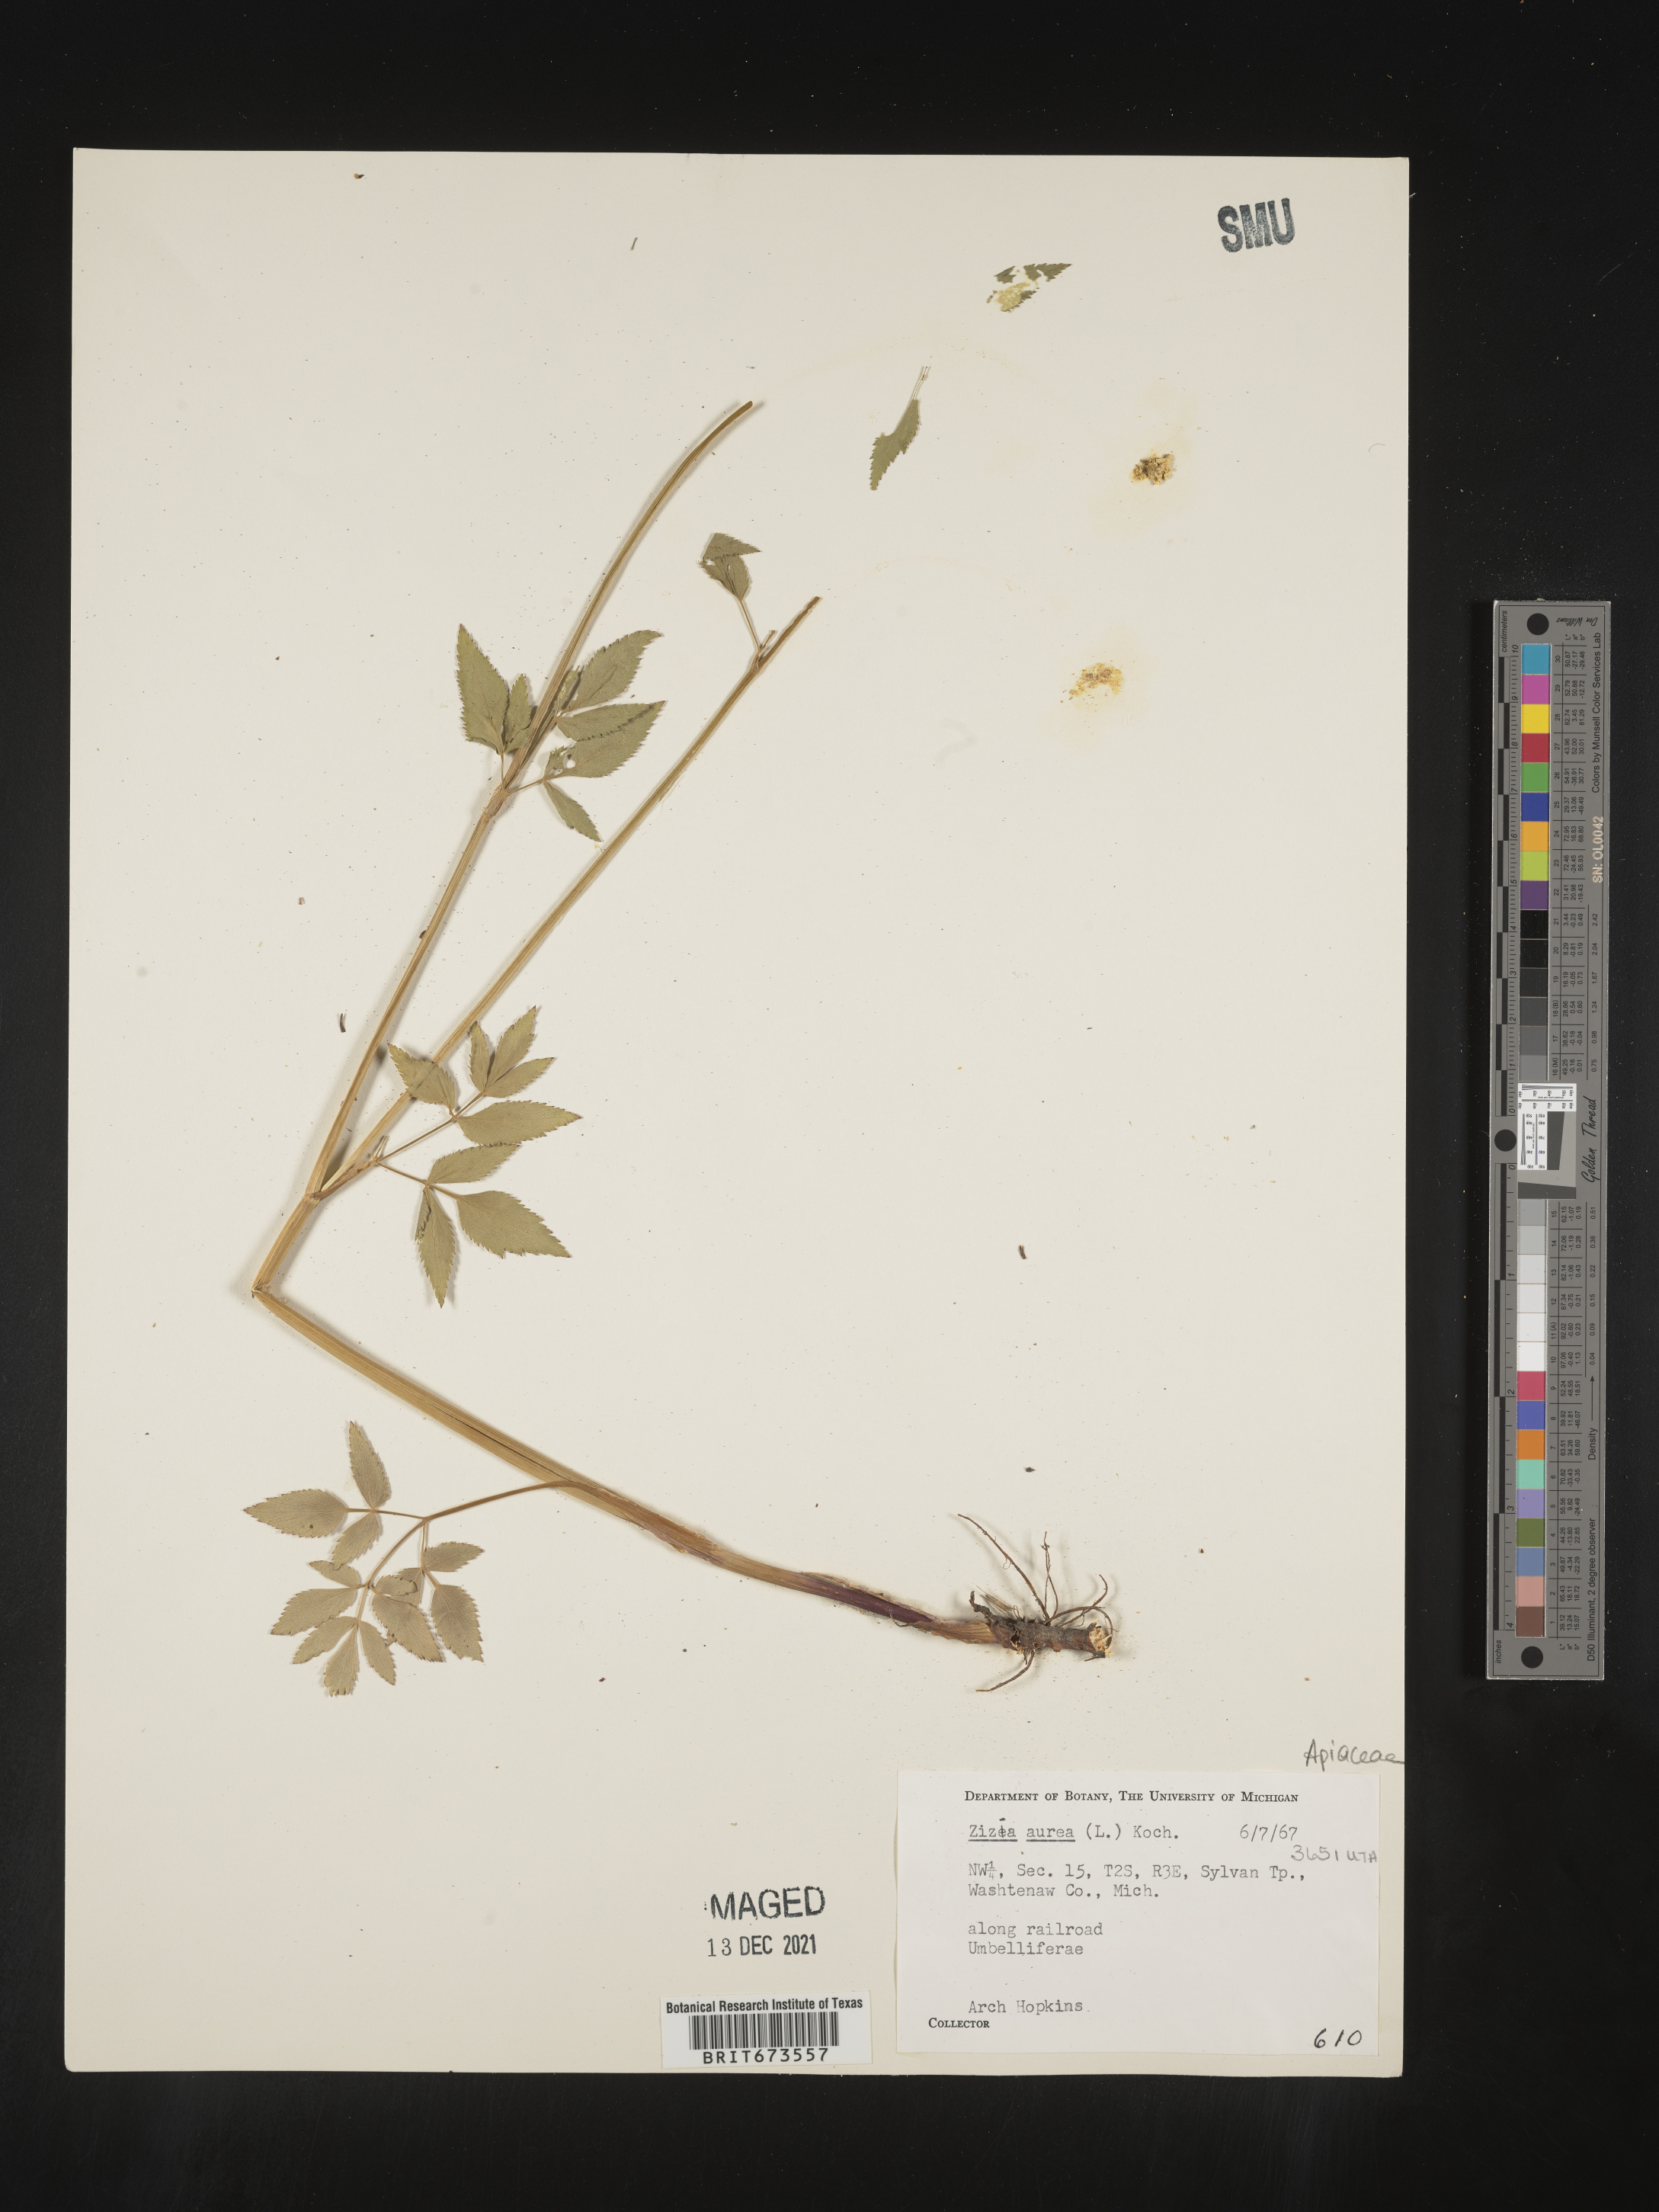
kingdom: Plantae
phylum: Tracheophyta
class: Magnoliopsida
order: Apiales
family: Apiaceae
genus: Zizia
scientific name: Zizia aurea
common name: Golden alexanders
